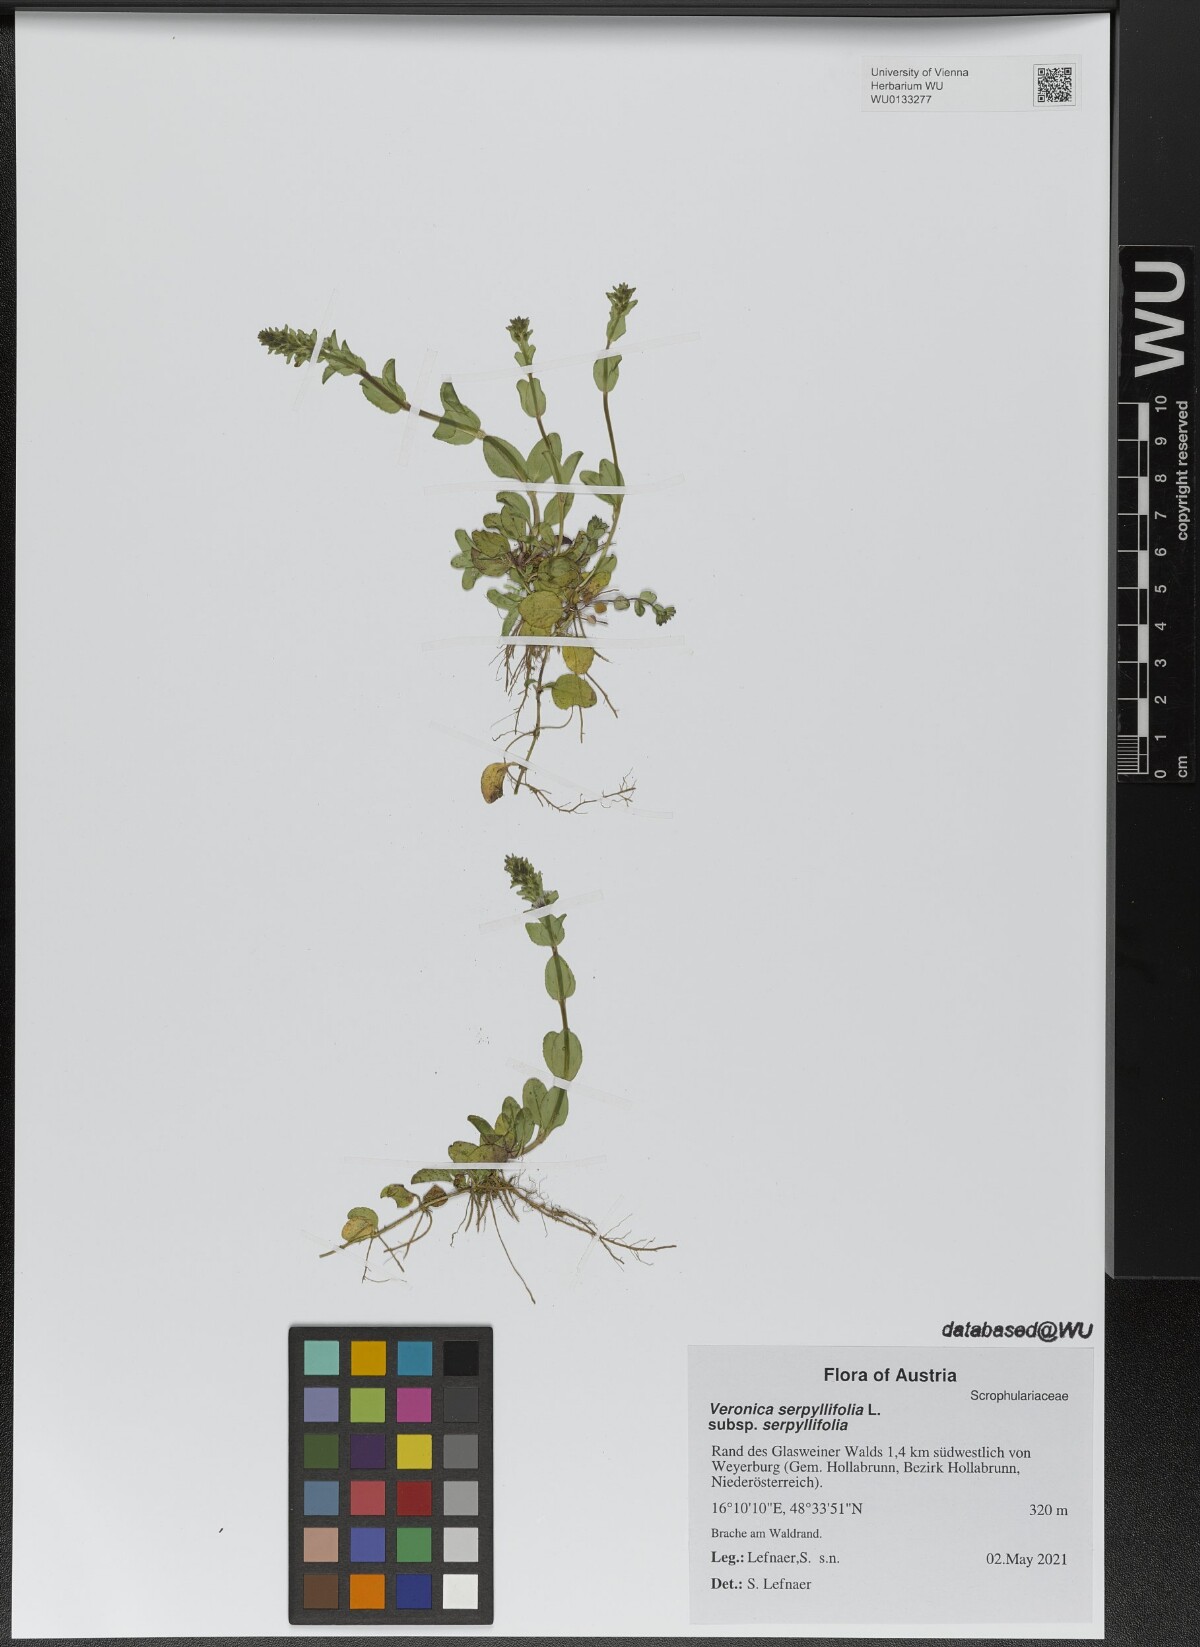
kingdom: Plantae
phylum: Tracheophyta
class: Magnoliopsida
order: Lamiales
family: Plantaginaceae
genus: Veronica
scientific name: Veronica serpyllifolia
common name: Thyme-leaved speedwell
